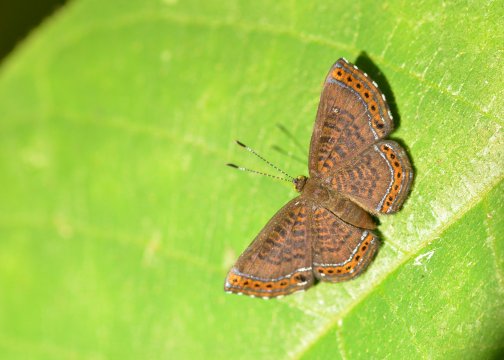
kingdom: Animalia
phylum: Arthropoda
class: Insecta
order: Lepidoptera
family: Riodinidae
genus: Detritivora
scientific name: Detritivora
